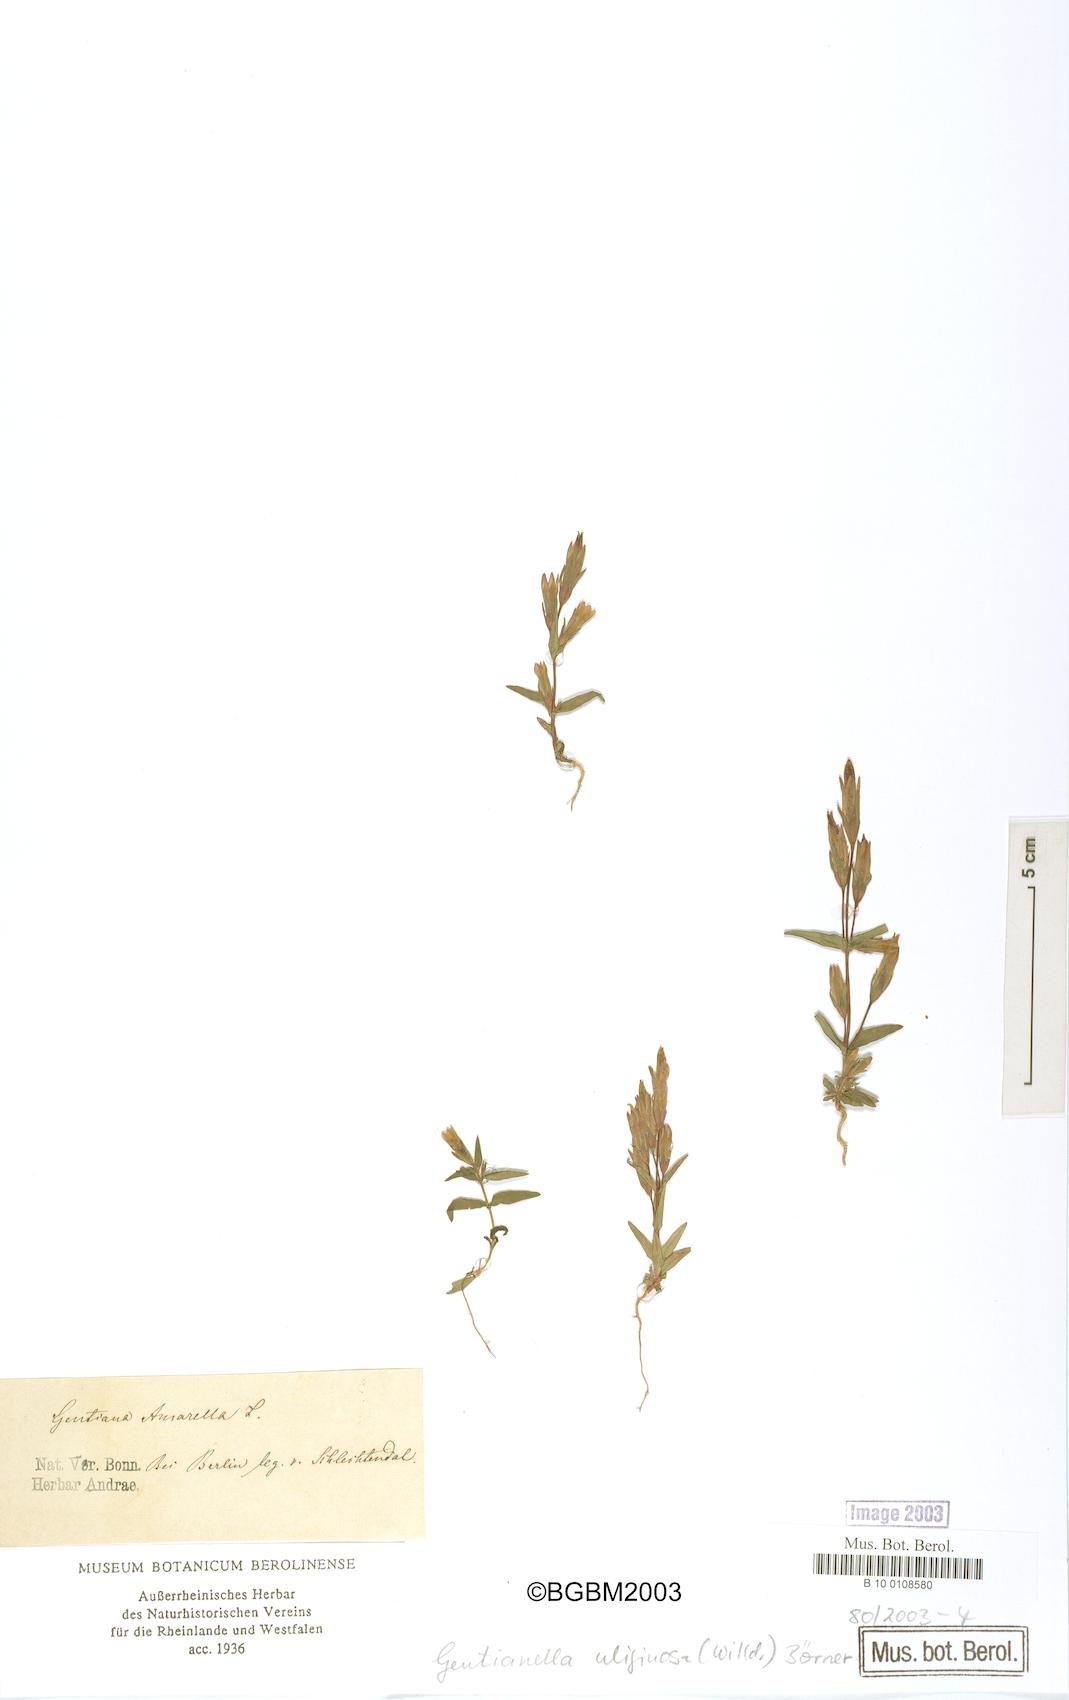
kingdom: Plantae
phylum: Tracheophyta
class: Magnoliopsida
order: Gentianales
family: Gentianaceae
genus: Gentianella
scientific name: Gentianella uliginosa
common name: Dune gentian
